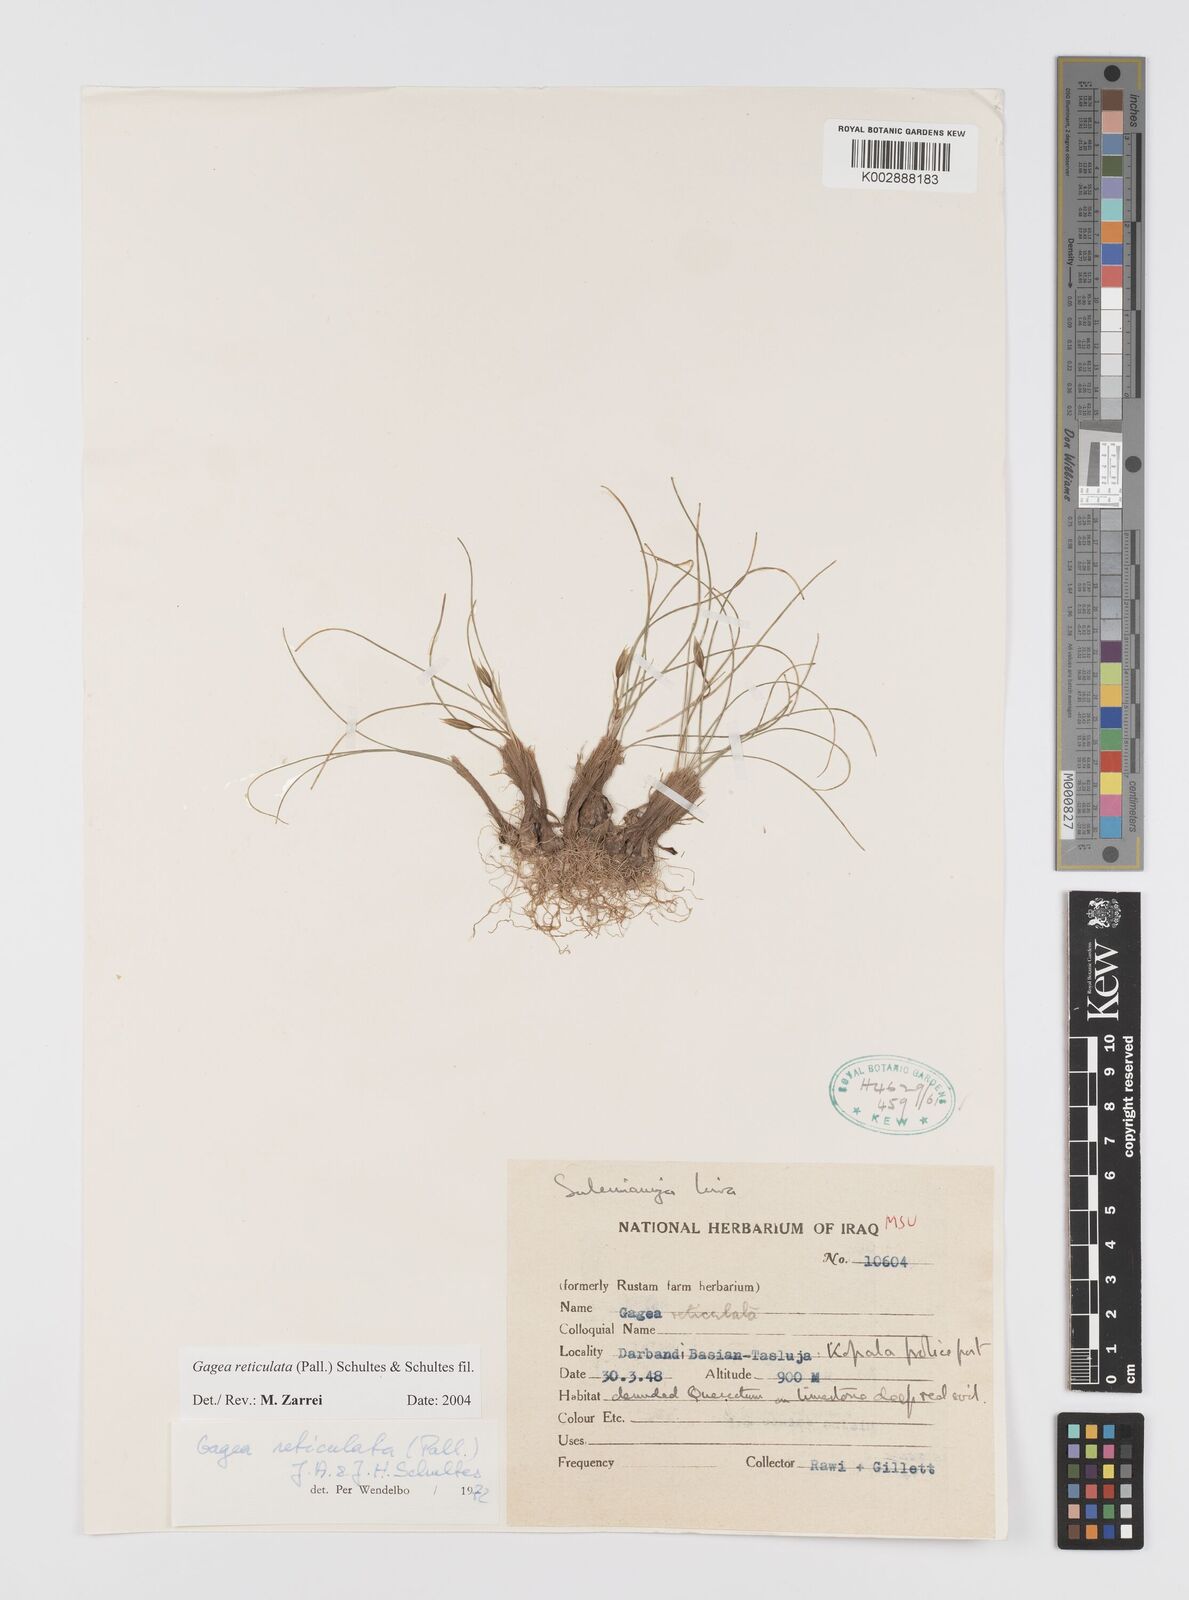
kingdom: Plantae
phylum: Tracheophyta
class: Liliopsida
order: Liliales
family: Liliaceae
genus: Gagea
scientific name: Gagea reticulata
